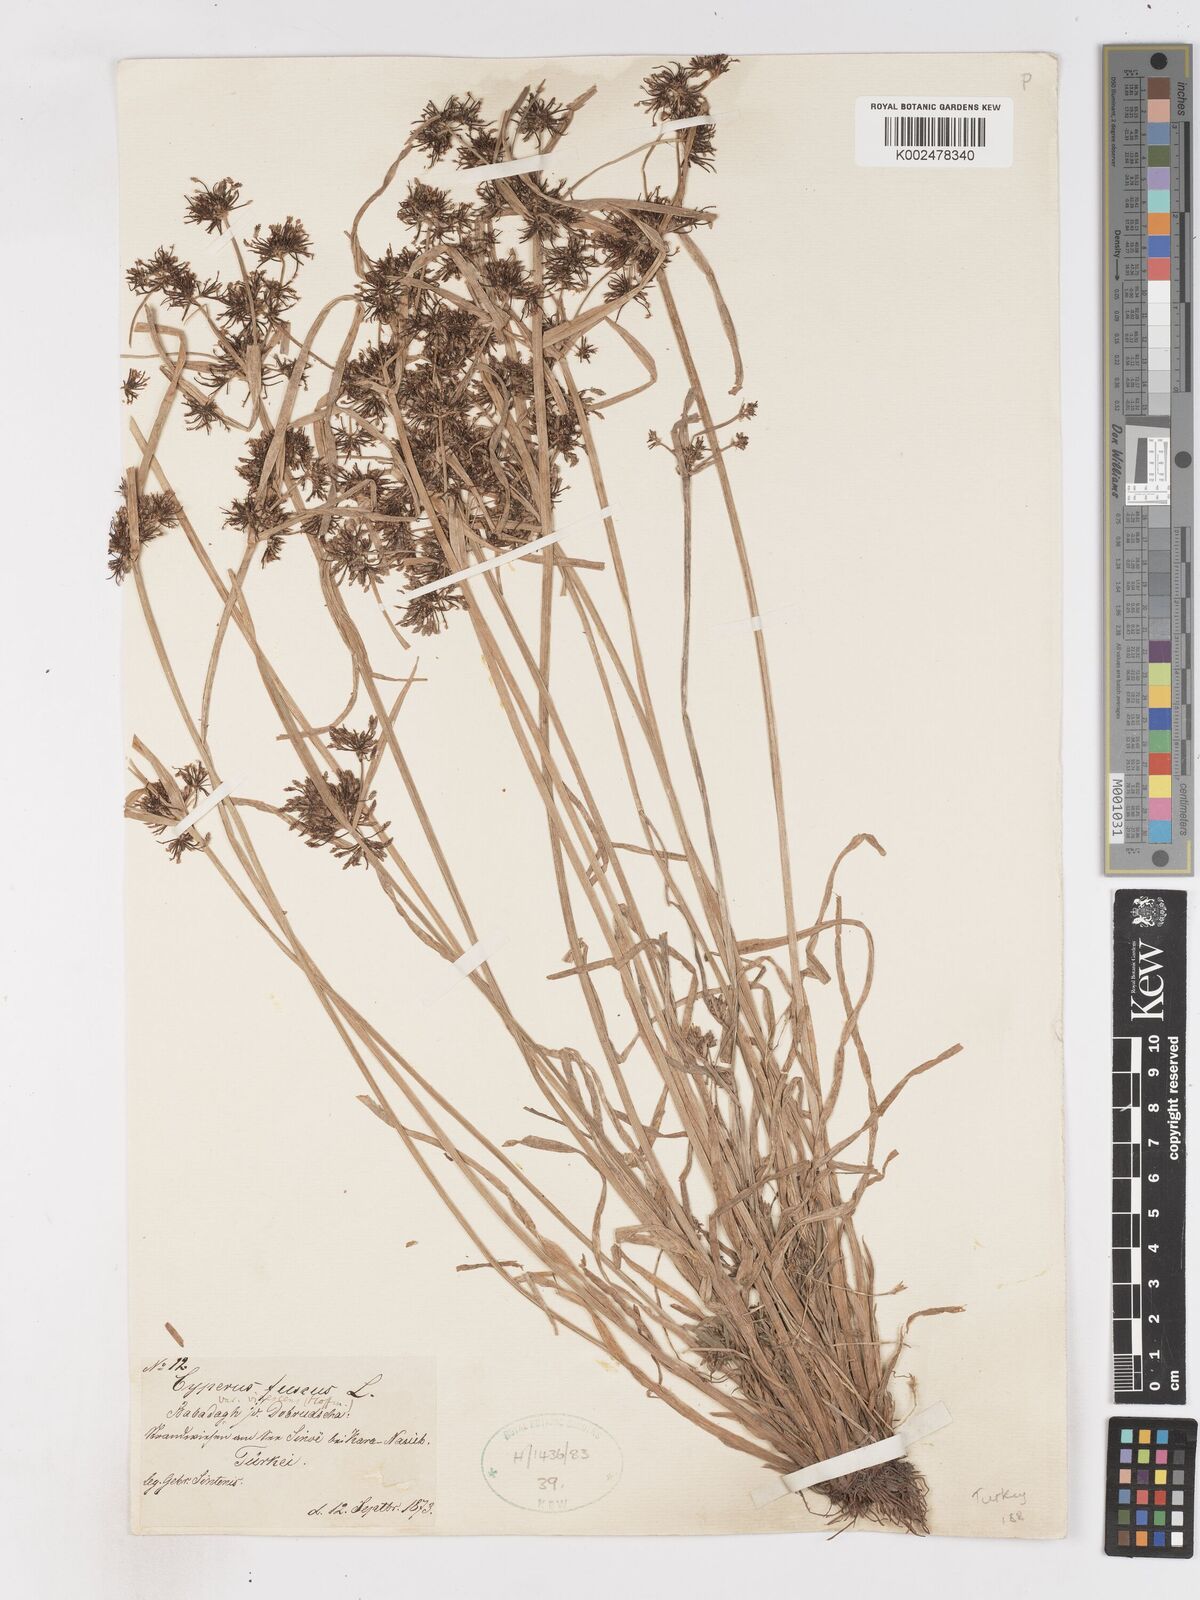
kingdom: Plantae
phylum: Tracheophyta
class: Liliopsida
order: Poales
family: Cyperaceae
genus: Cyperus
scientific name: Cyperus fuscus
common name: Brown galingale
